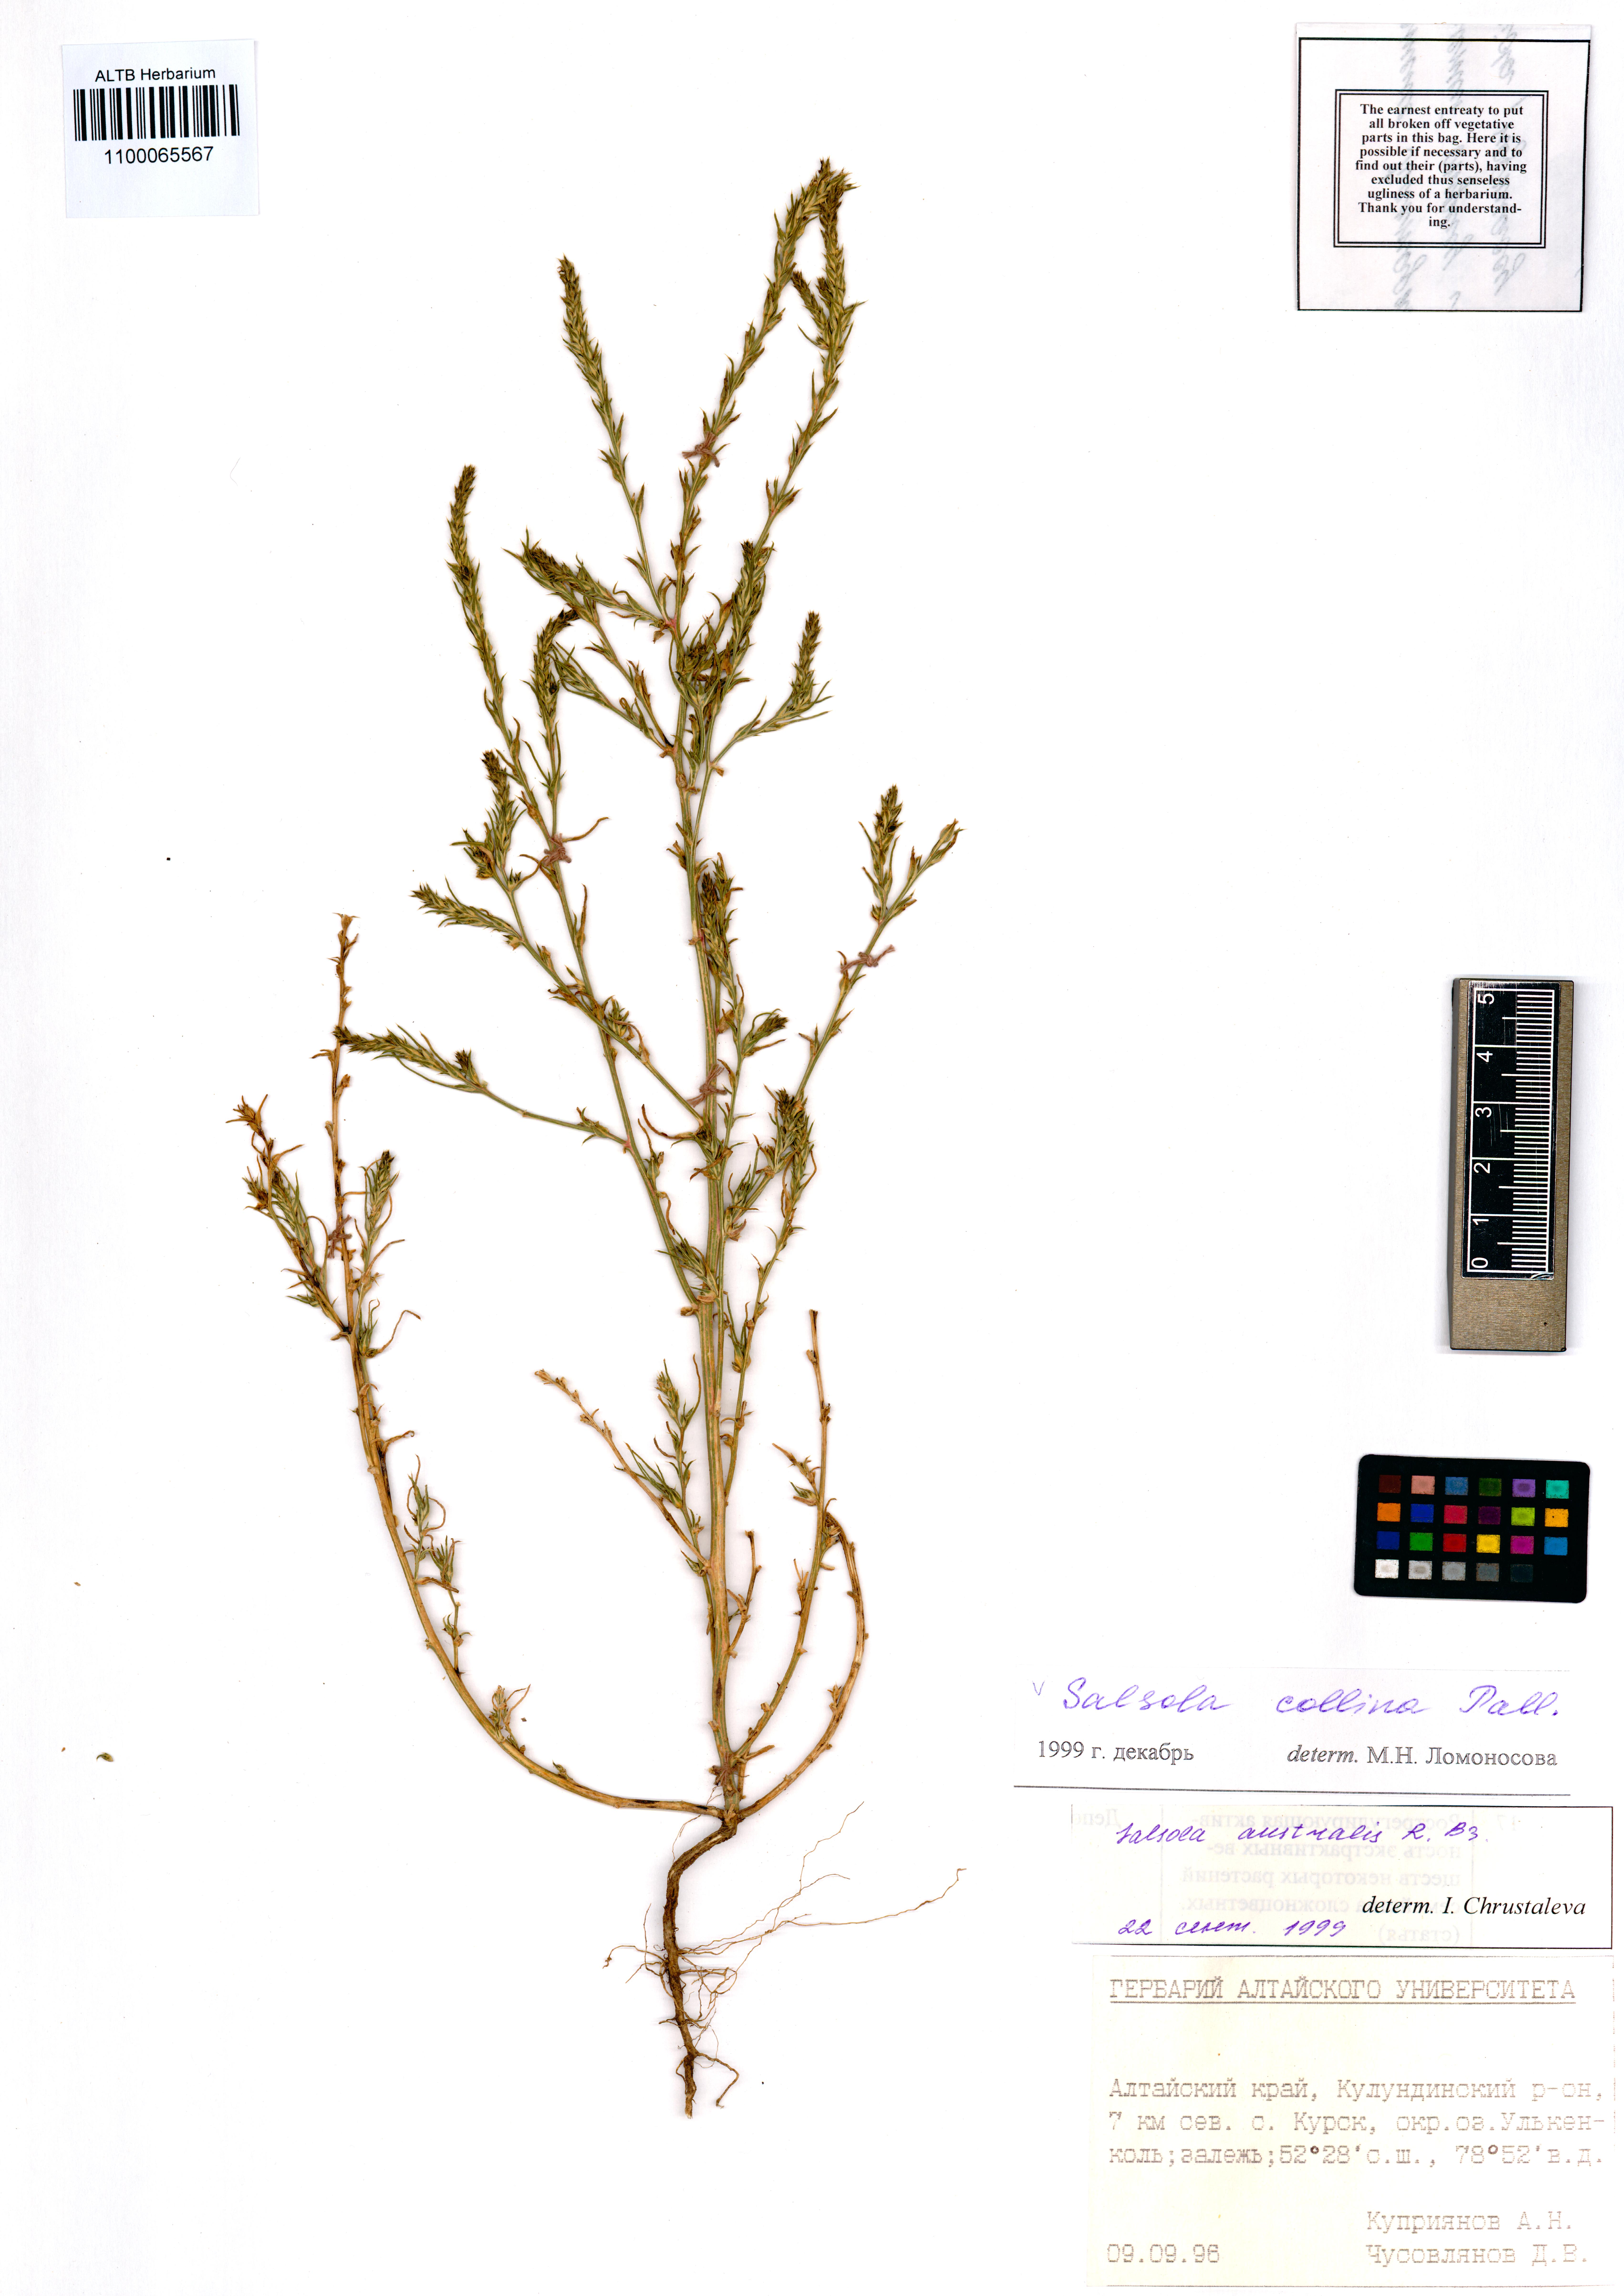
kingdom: Plantae
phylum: Tracheophyta
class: Magnoliopsida
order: Caryophyllales
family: Amaranthaceae
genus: Salsola
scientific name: Salsola collina
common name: Tumbleweed
